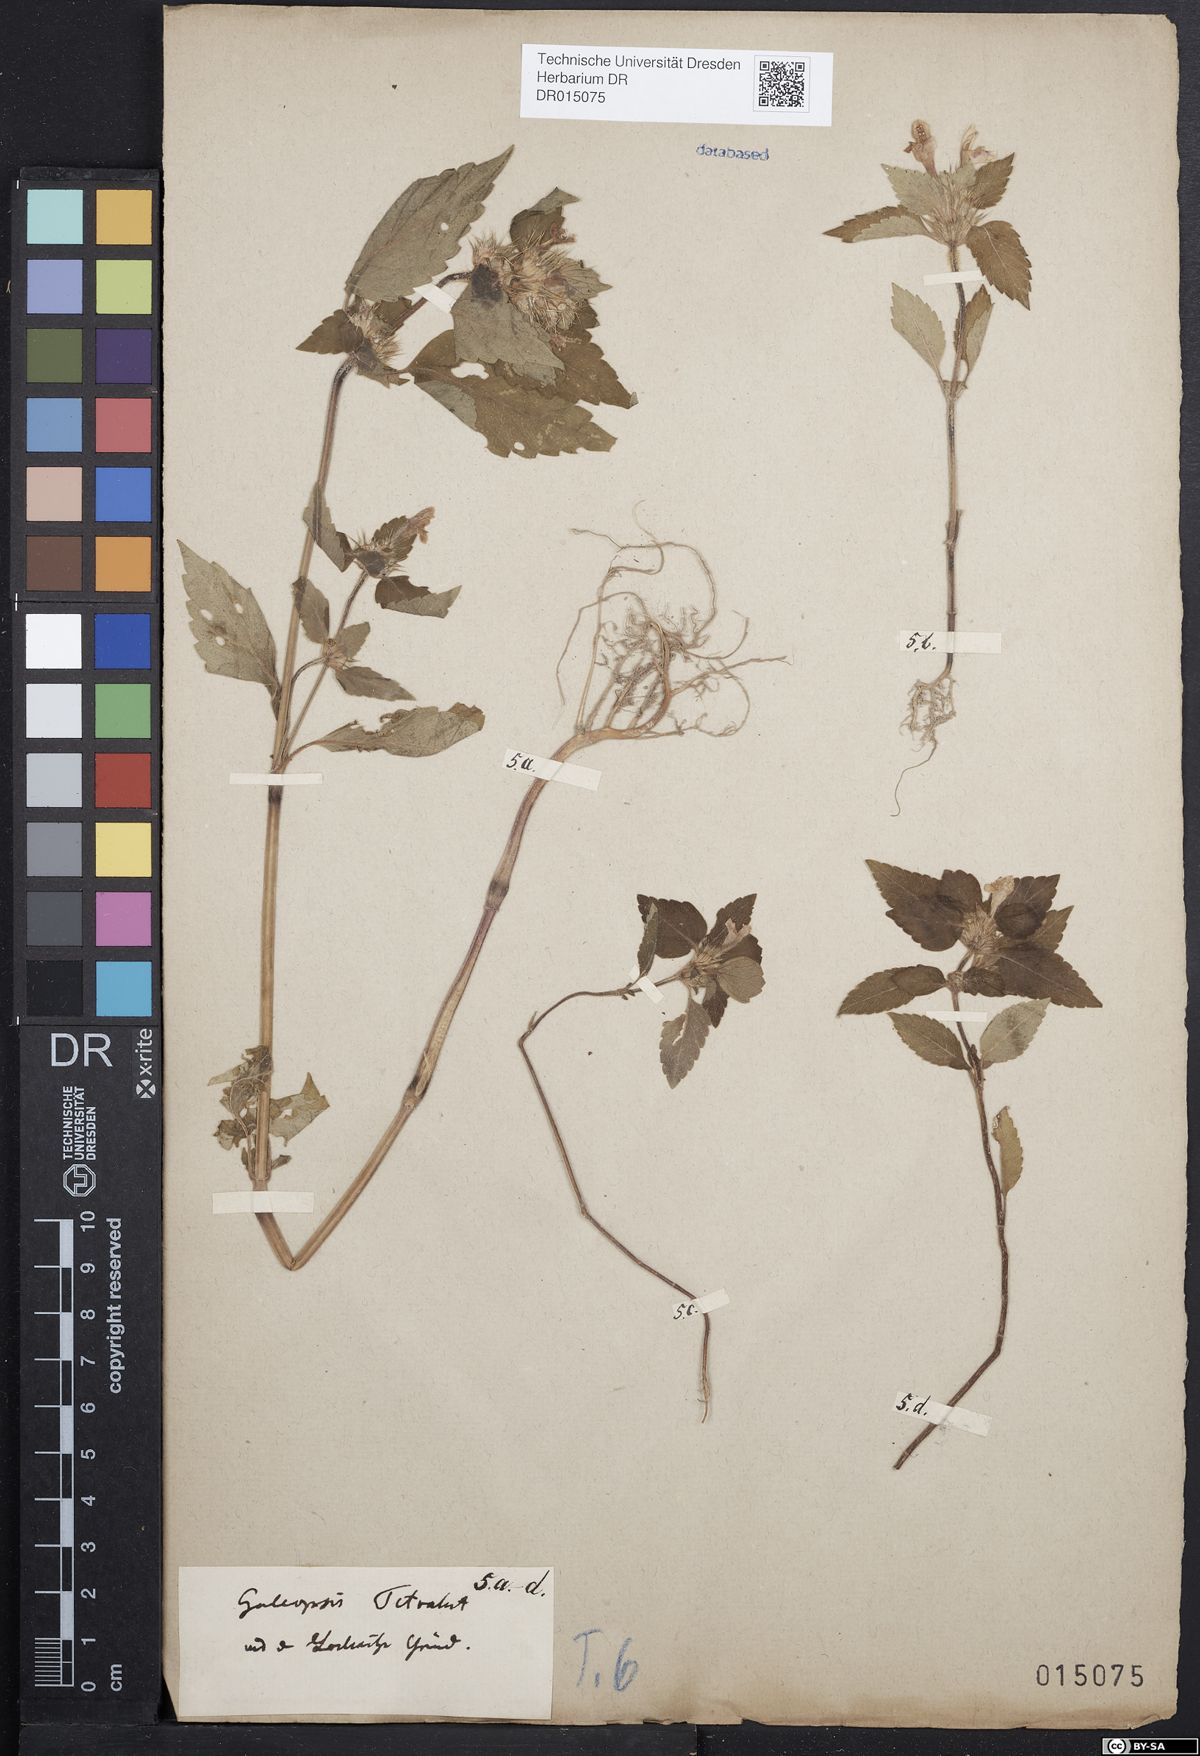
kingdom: Plantae
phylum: Tracheophyta
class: Magnoliopsida
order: Lamiales
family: Lamiaceae
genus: Galeopsis
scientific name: Galeopsis tetrahit
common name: Common hemp-nettle
